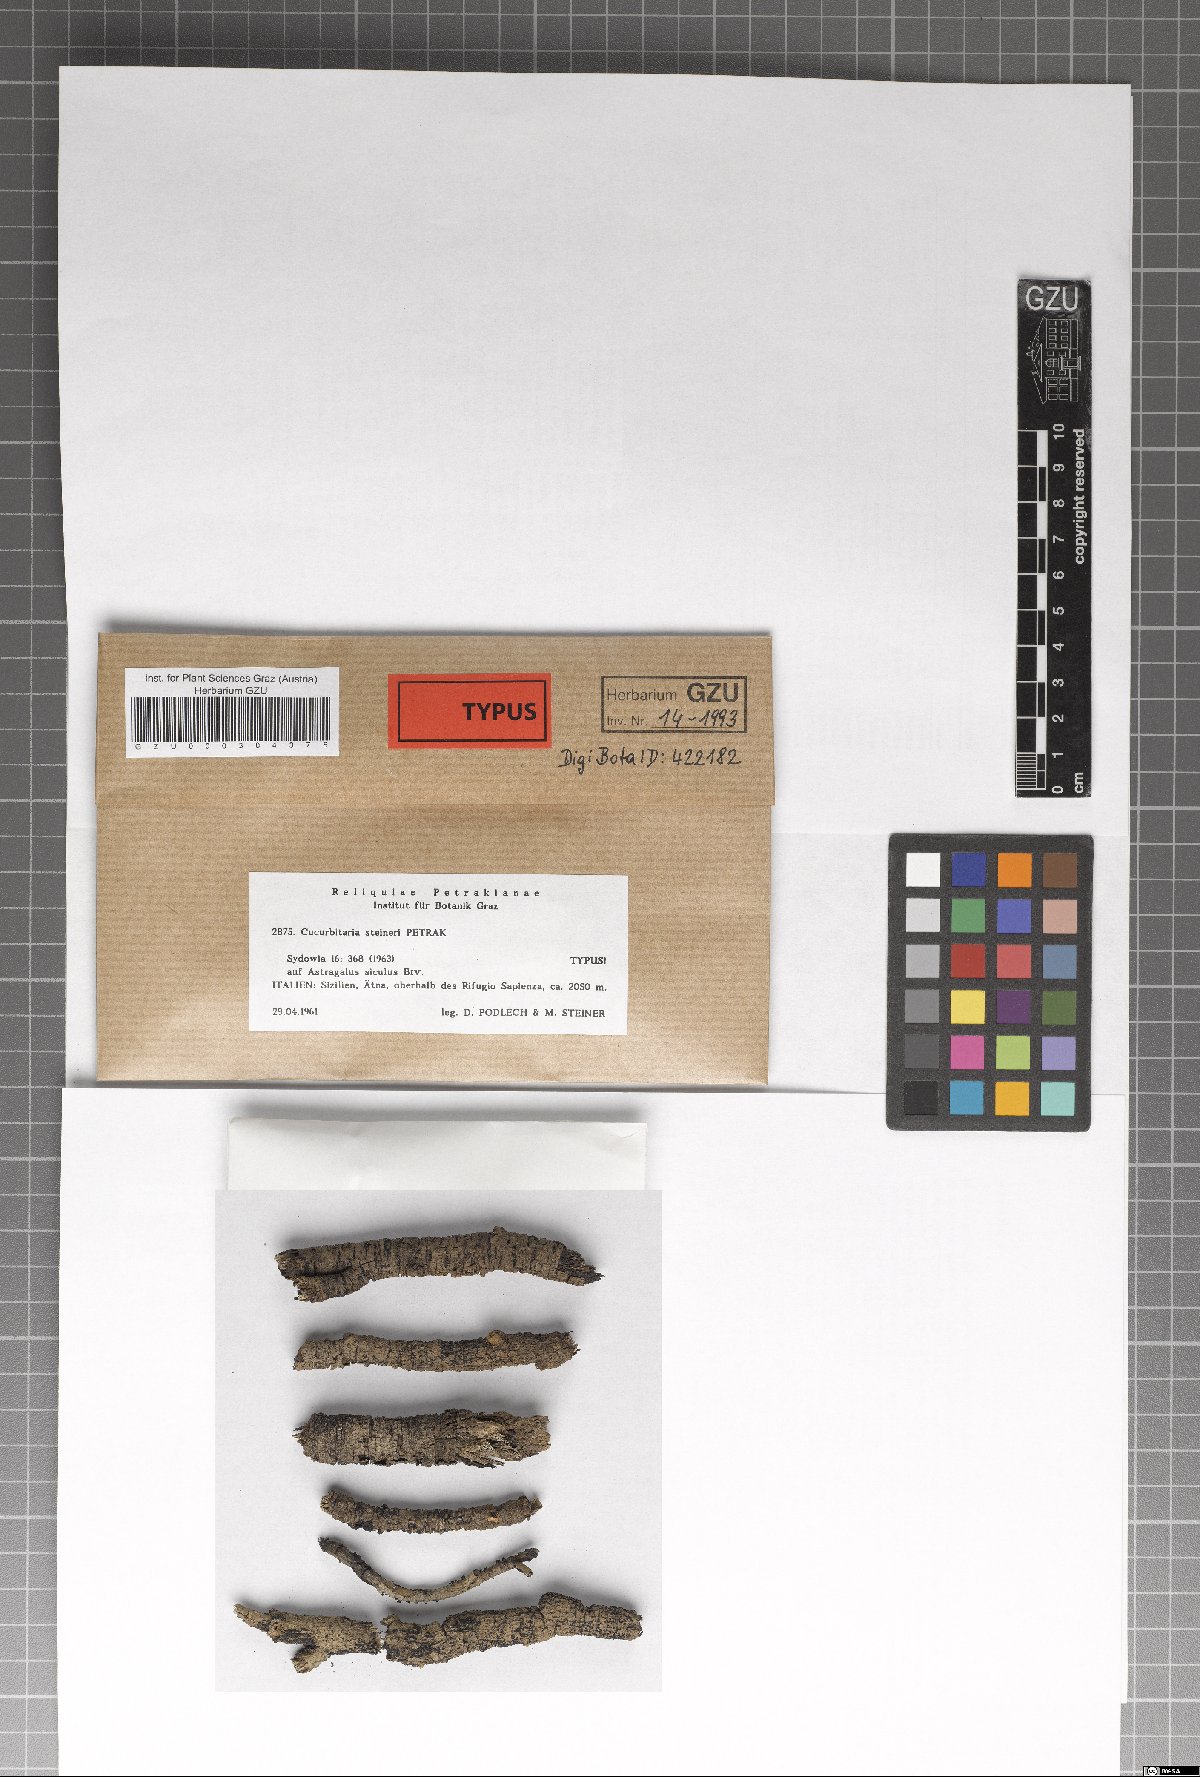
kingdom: Fungi
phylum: Ascomycota
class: Dothideomycetes
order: Pleosporales
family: Cucurbitariaceae
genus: Cucurbitaria
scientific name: Cucurbitaria steineri
